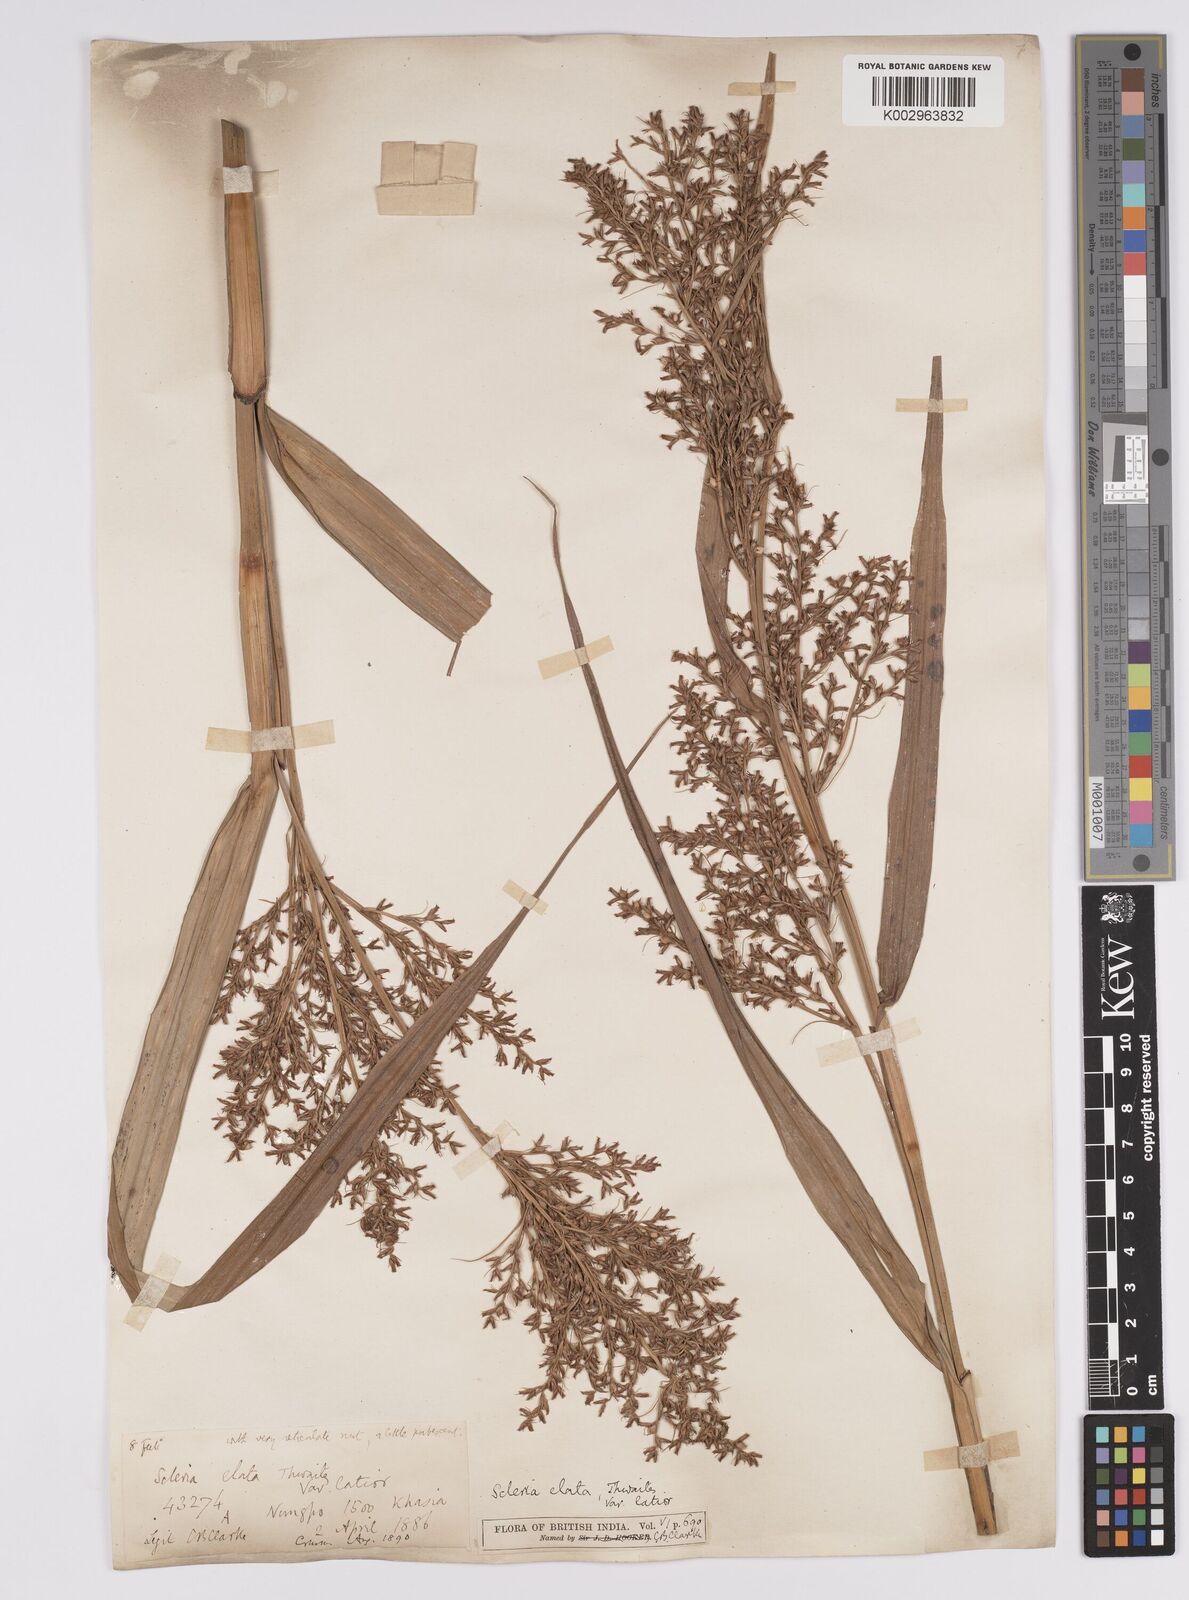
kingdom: Plantae
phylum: Tracheophyta
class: Liliopsida
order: Poales
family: Cyperaceae
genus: Scleria
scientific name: Scleria terrestris
